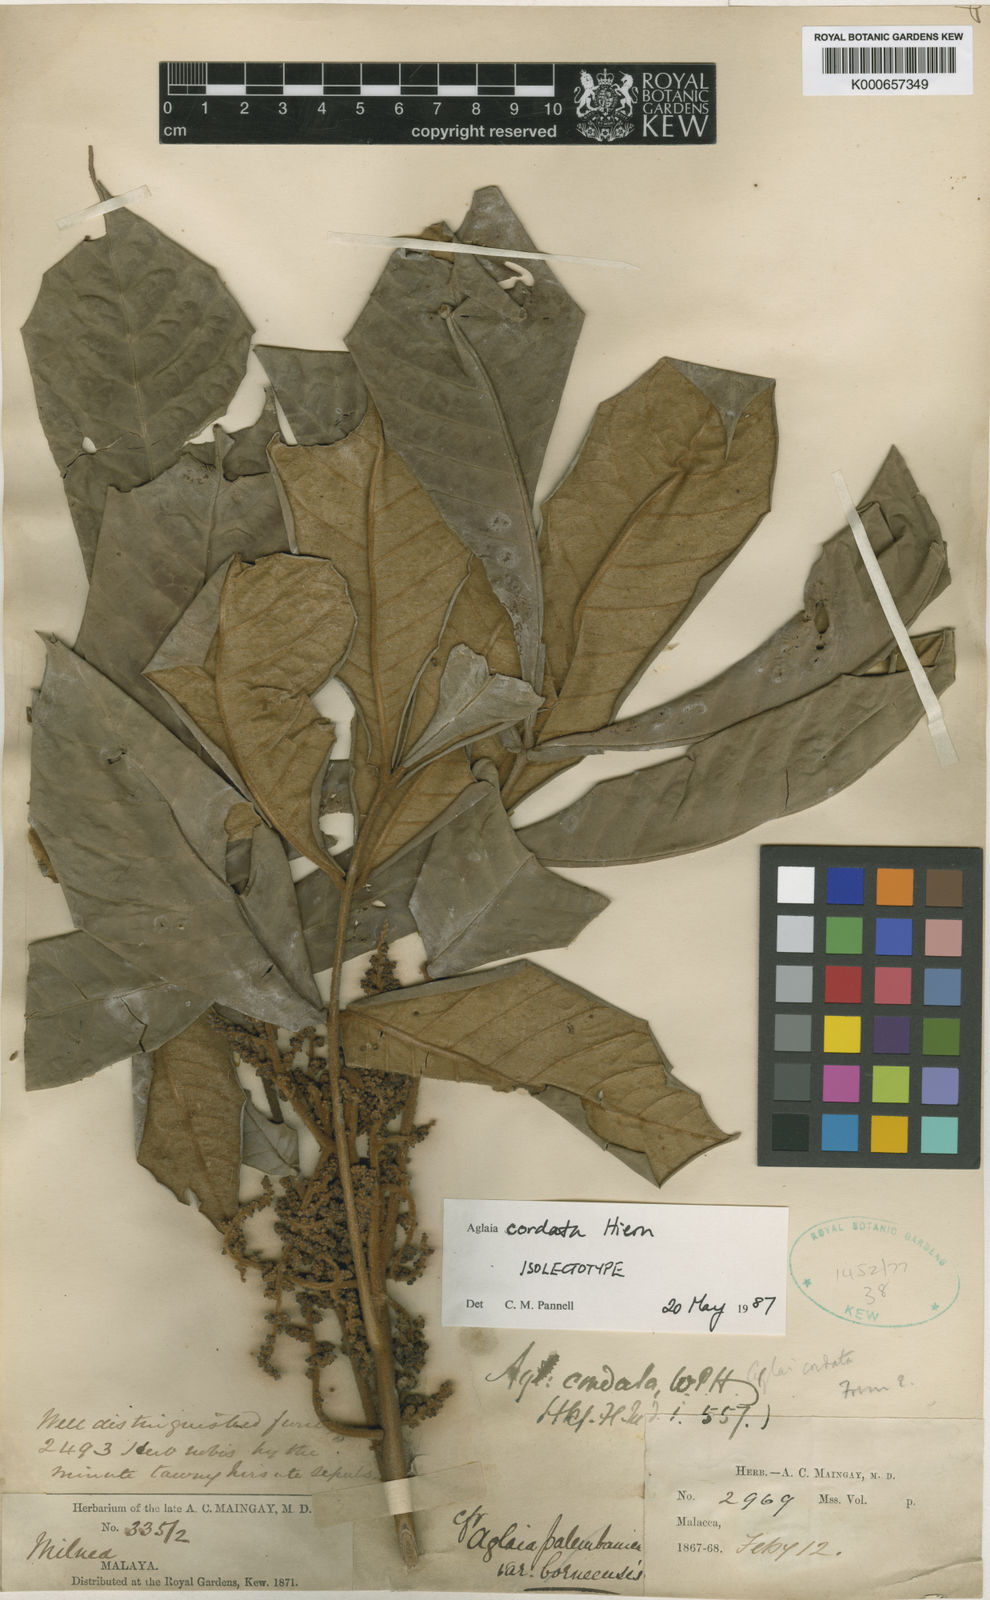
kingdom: Plantae
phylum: Tracheophyta
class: Magnoliopsida
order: Sapindales
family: Meliaceae
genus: Aglaia
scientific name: Aglaia tomentosa
